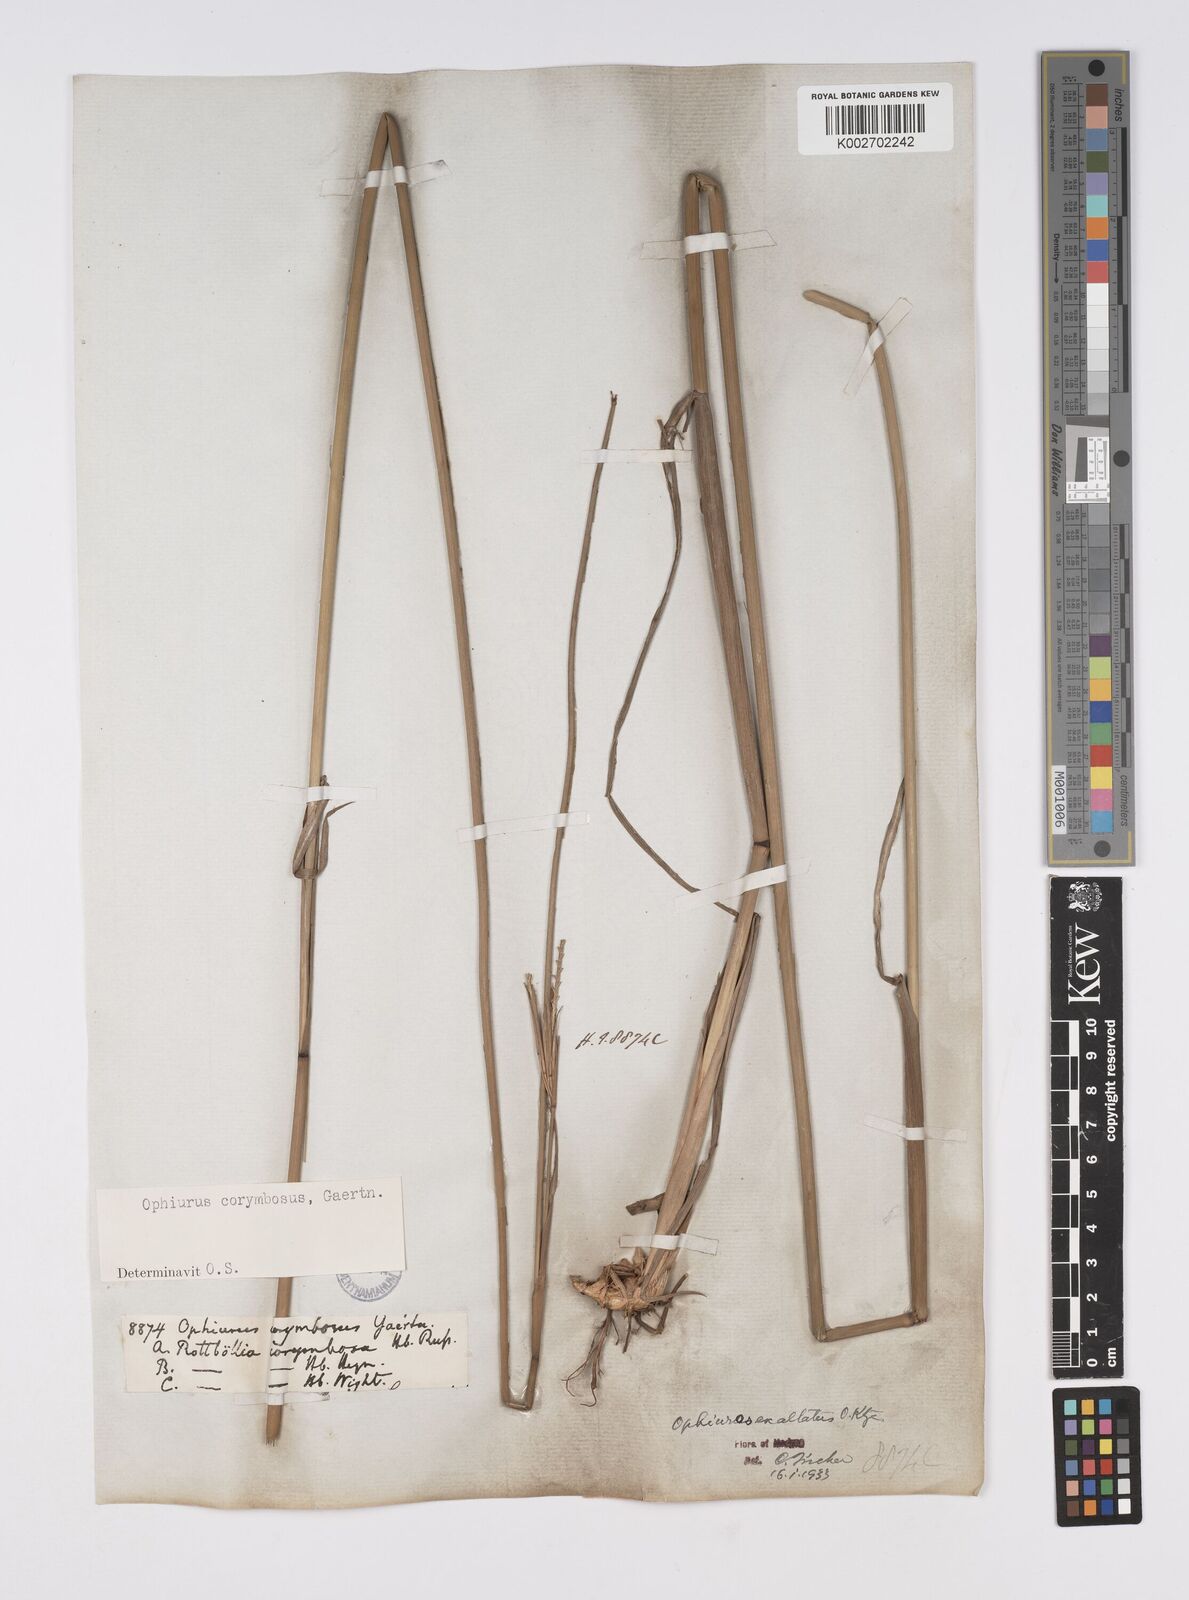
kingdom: Plantae
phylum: Tracheophyta
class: Liliopsida
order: Poales
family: Poaceae
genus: Ophiuros
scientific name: Ophiuros exaltatus
